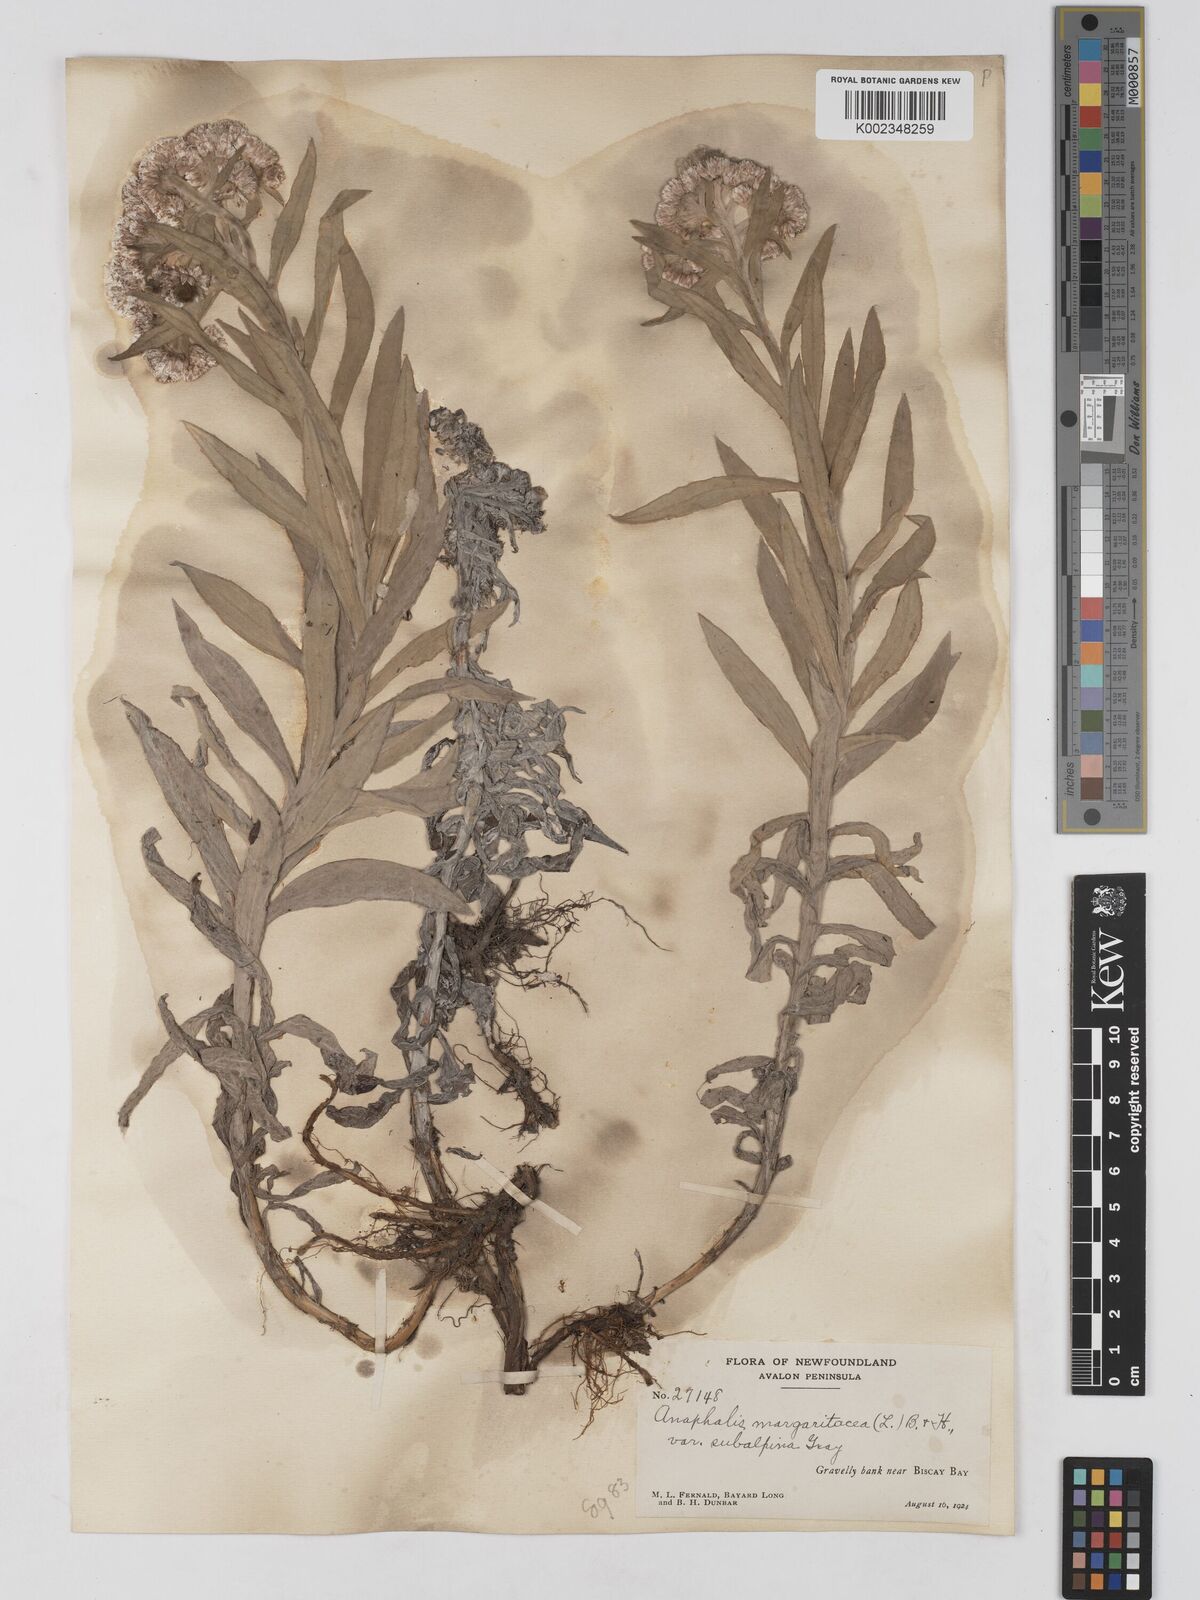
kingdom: Plantae
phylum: Tracheophyta
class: Magnoliopsida
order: Asterales
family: Asteraceae
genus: Anaphalis
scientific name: Anaphalis margaritacea
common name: Pearly everlasting
